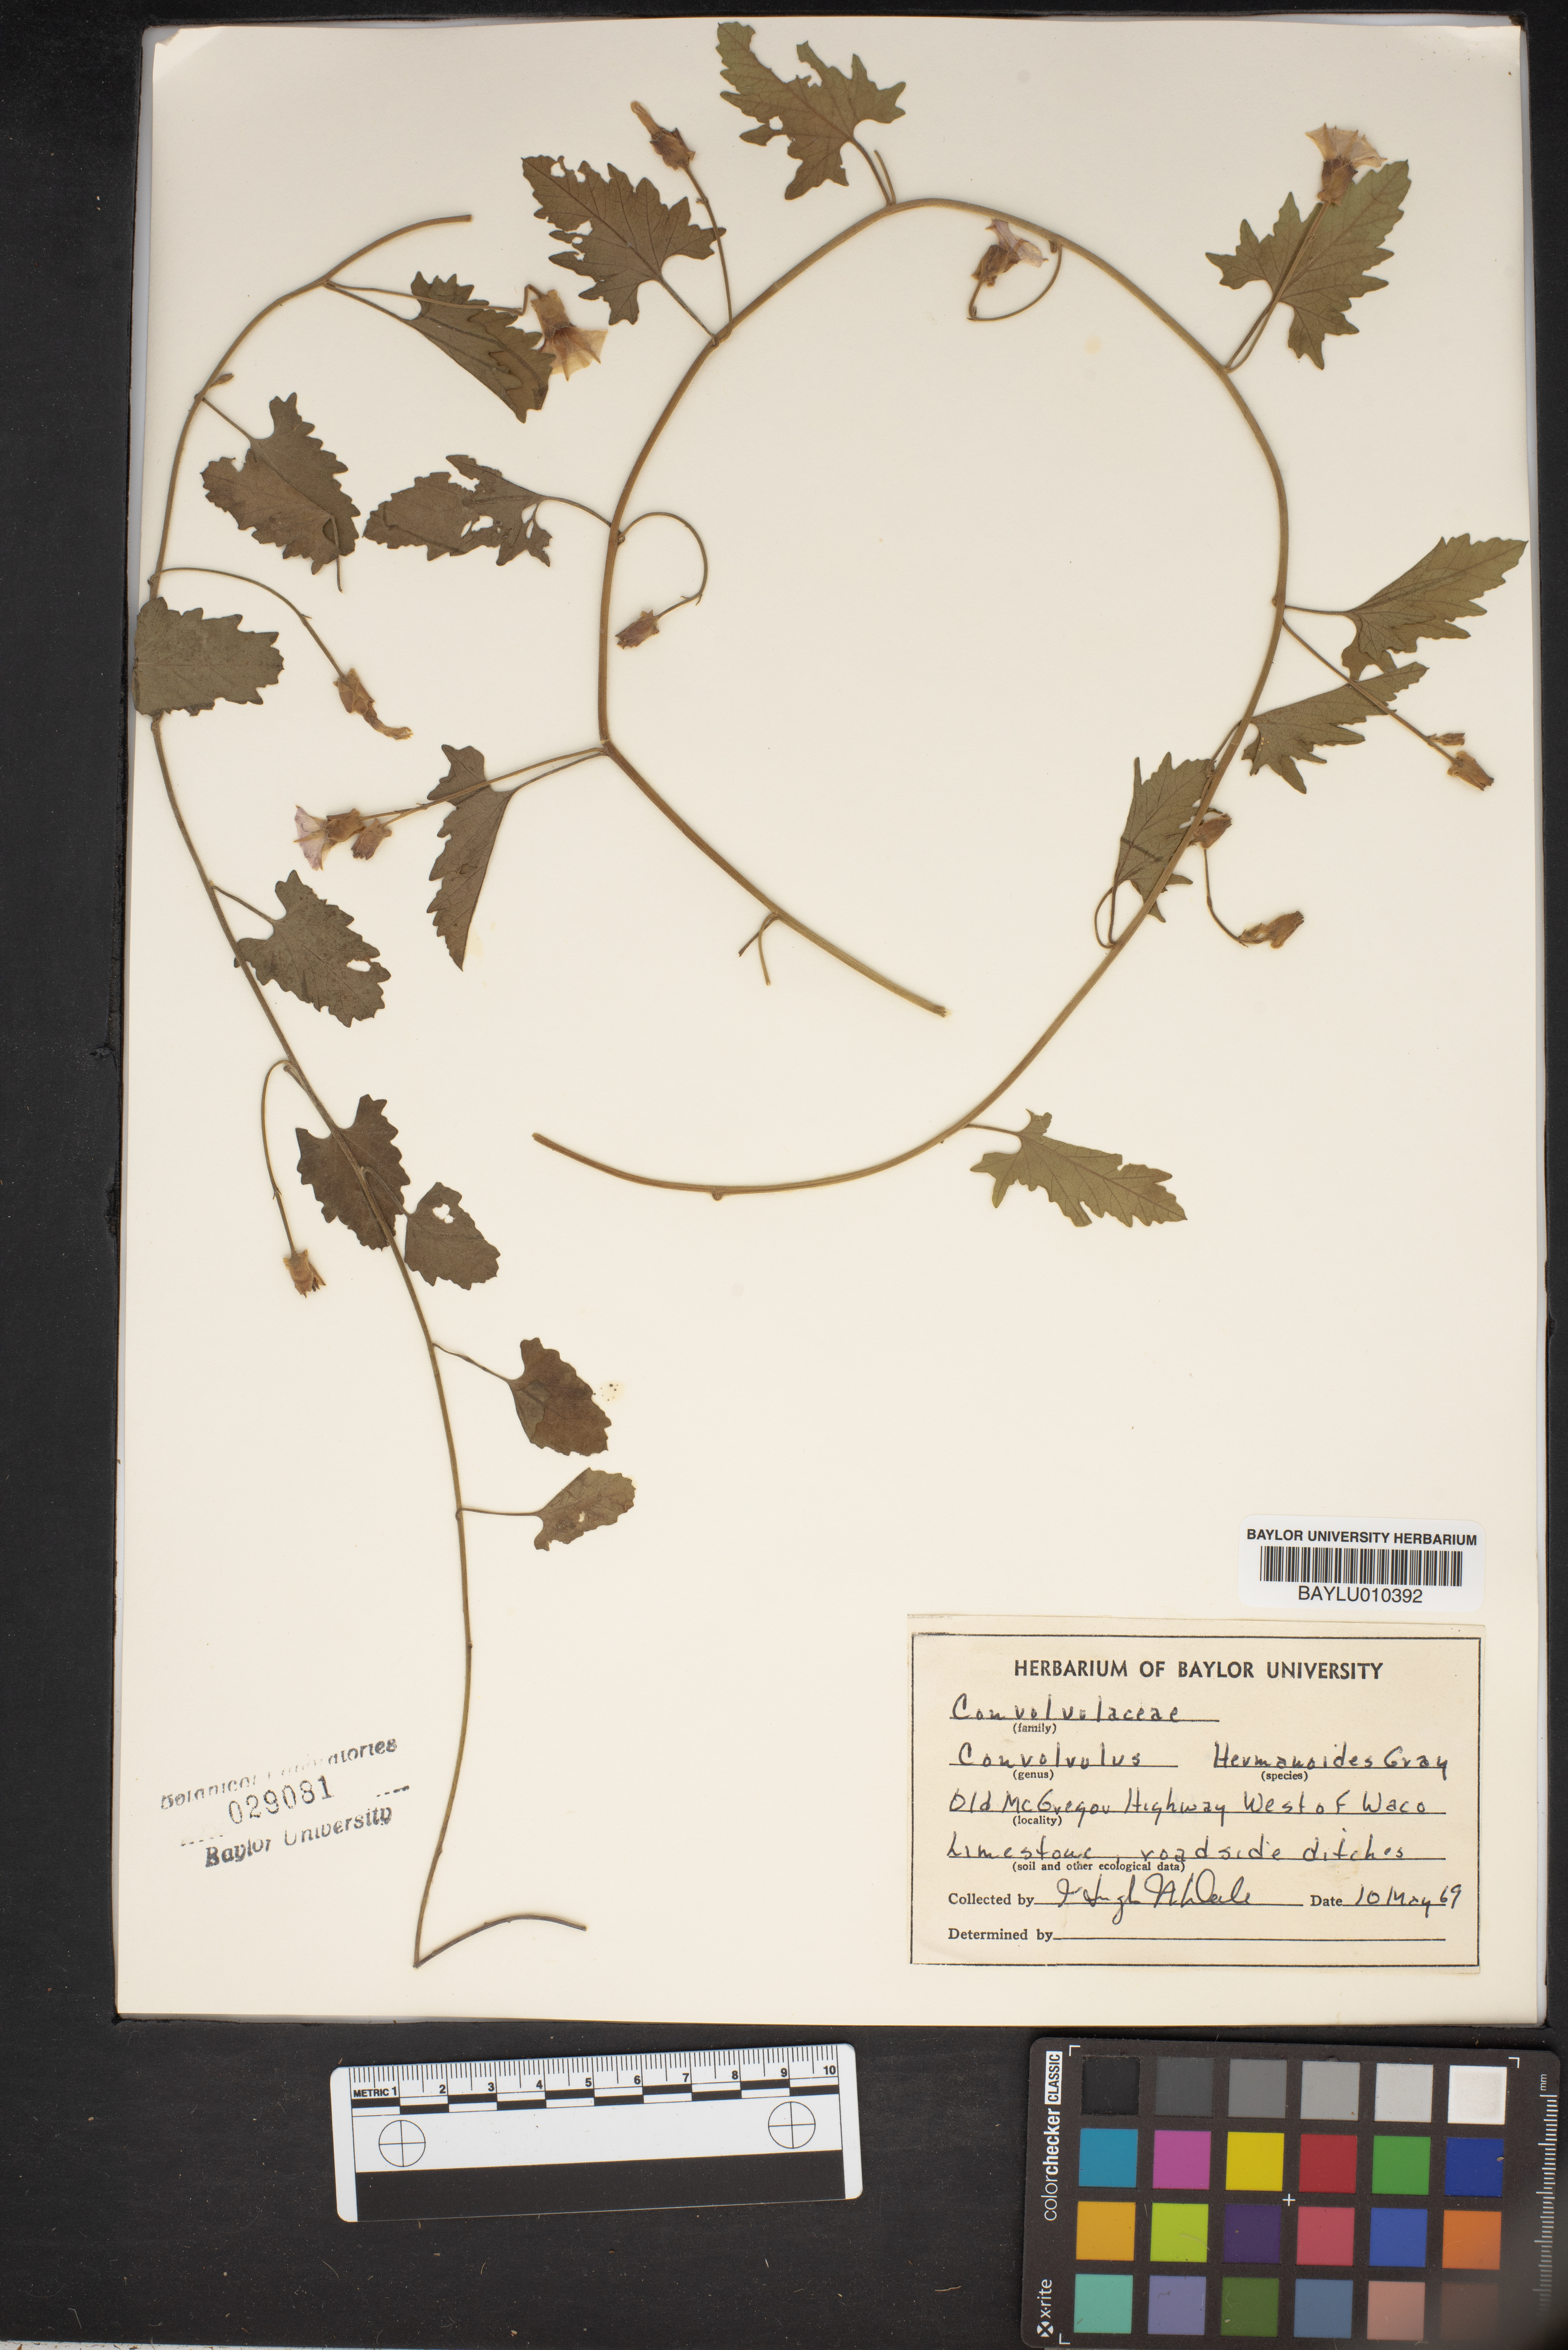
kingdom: Plantae
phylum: Tracheophyta
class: Magnoliopsida
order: Solanales
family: Convolvulaceae
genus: Convolvulus
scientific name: Convolvulus equitans
